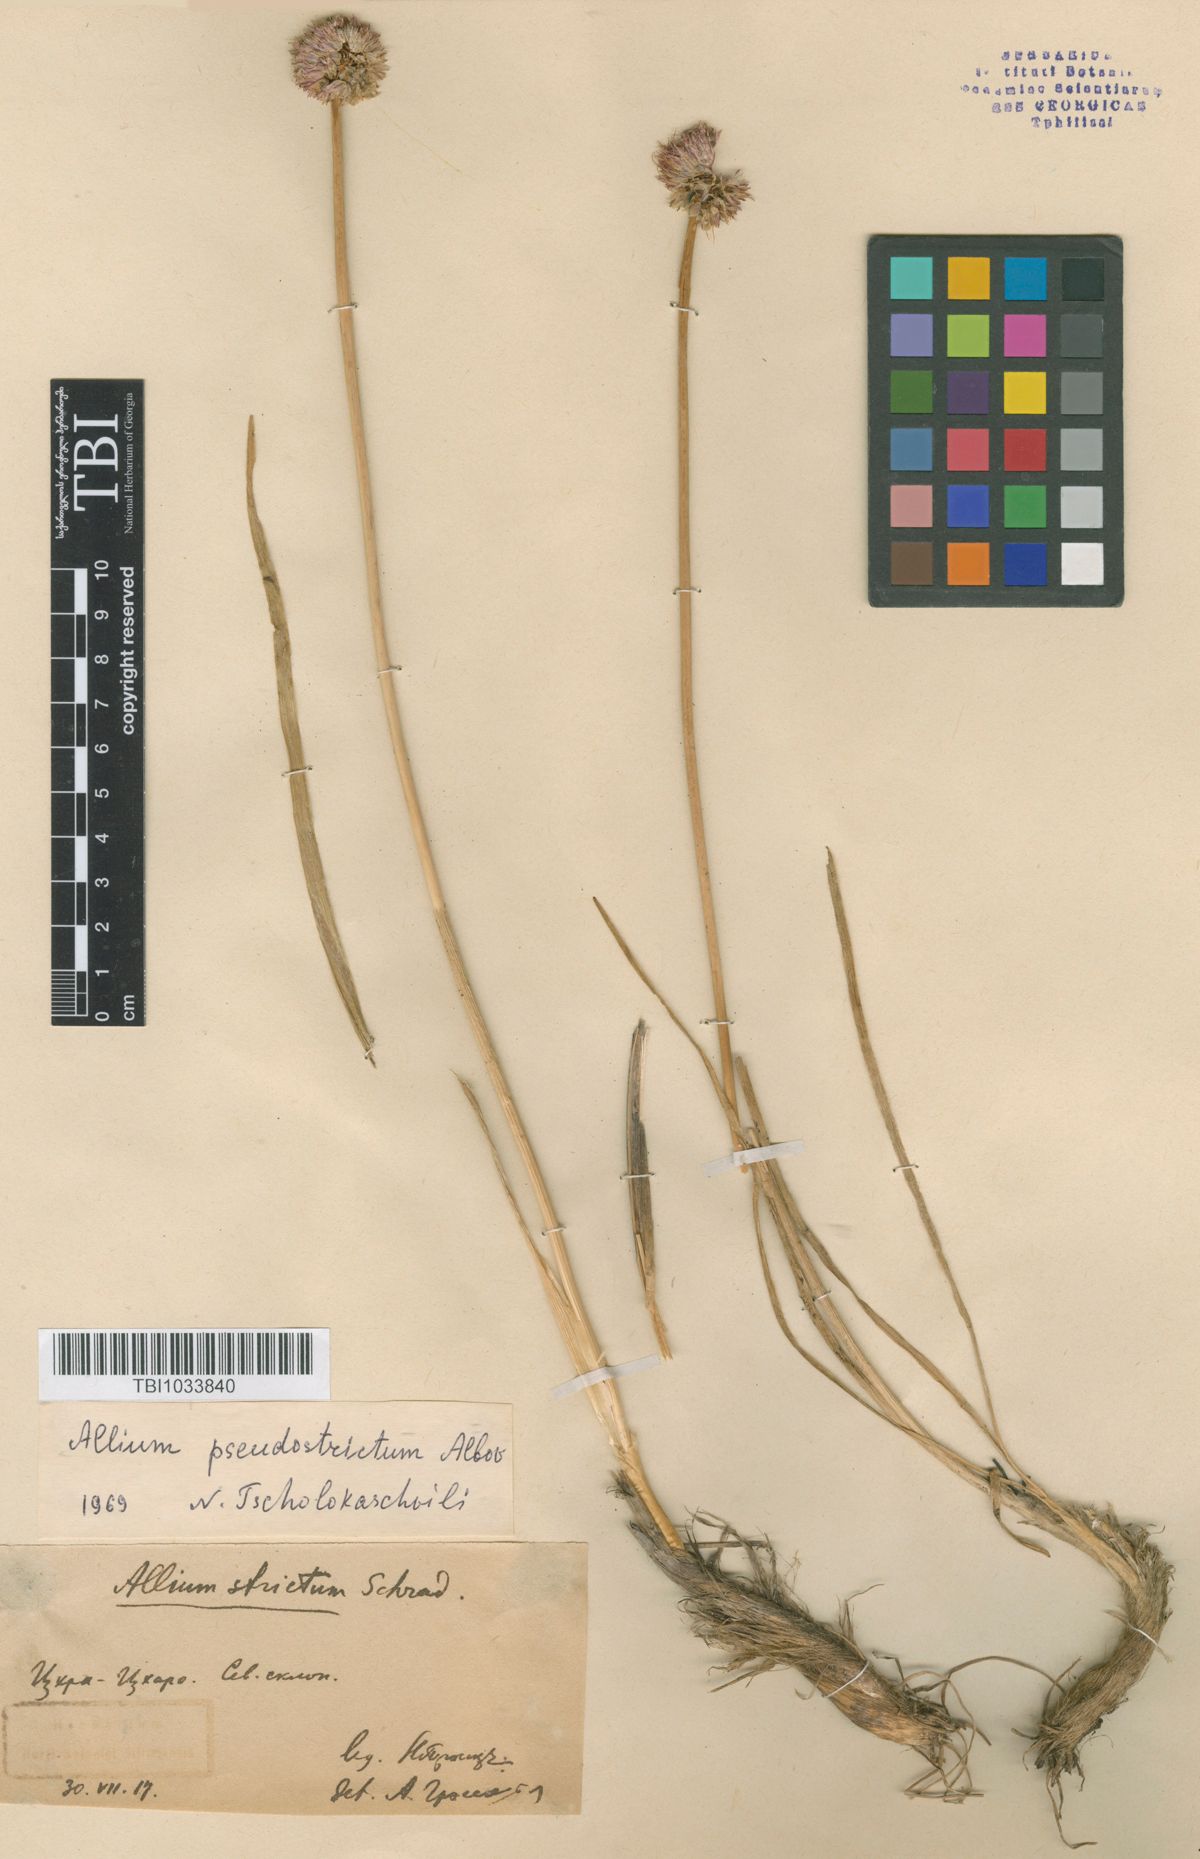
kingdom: Plantae
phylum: Tracheophyta
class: Liliopsida
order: Asparagales
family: Amaryllidaceae
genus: Allium
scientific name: Allium pseudostrictum
